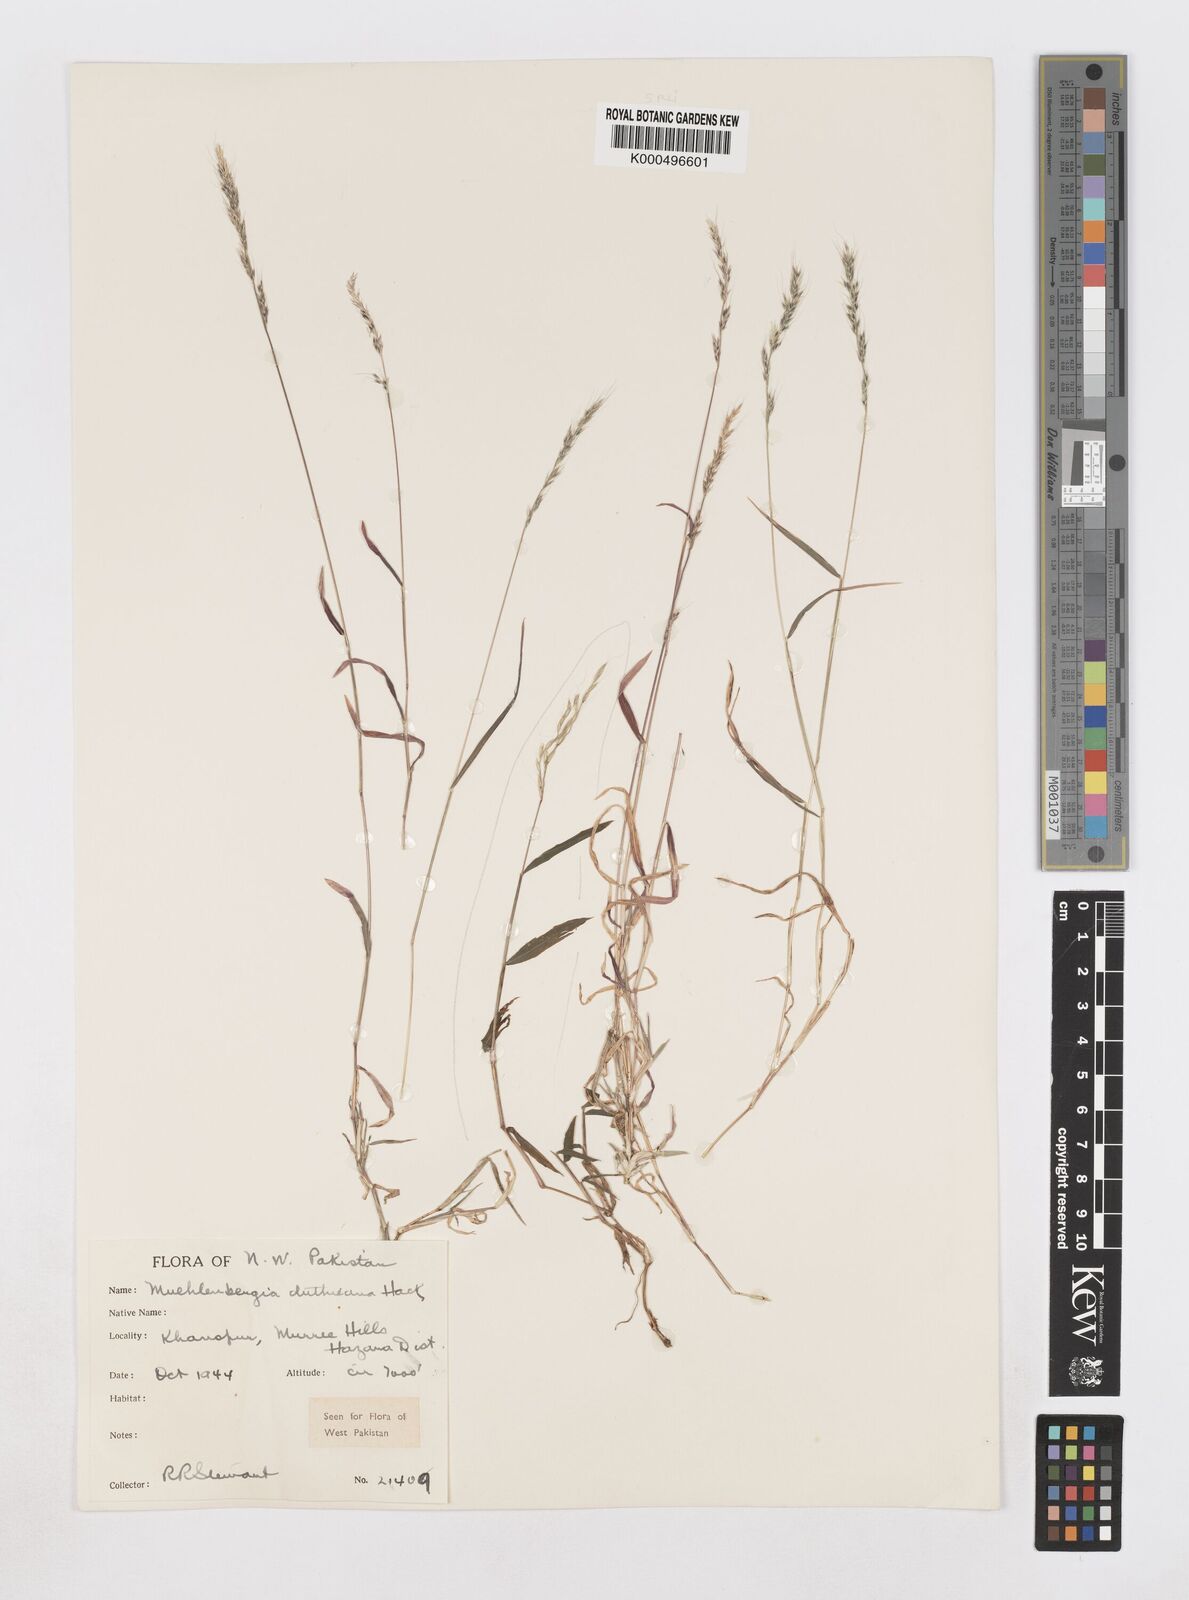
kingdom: Plantae
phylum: Tracheophyta
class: Liliopsida
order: Poales
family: Poaceae
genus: Muhlenbergia
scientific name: Muhlenbergia duthieana
